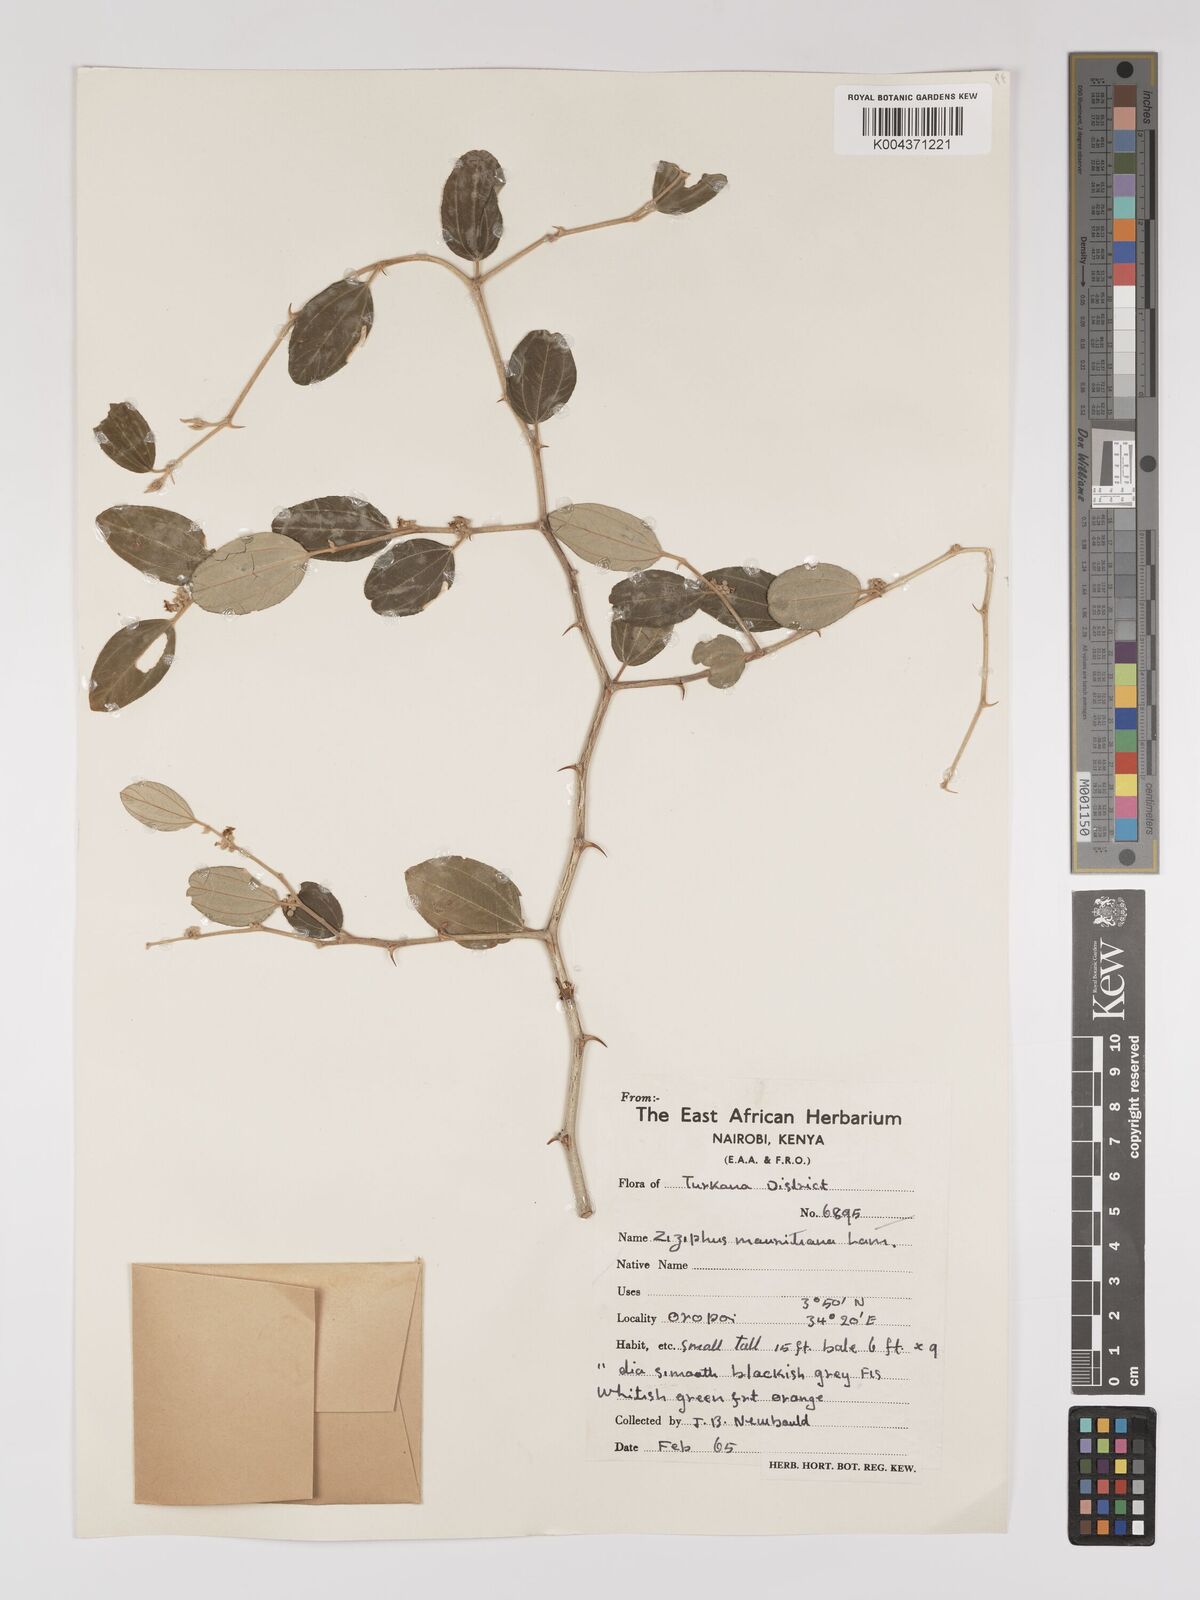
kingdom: Plantae
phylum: Tracheophyta
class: Magnoliopsida
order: Rosales
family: Rhamnaceae
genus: Ziziphus
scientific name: Ziziphus mauritiana
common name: Indian jujube
